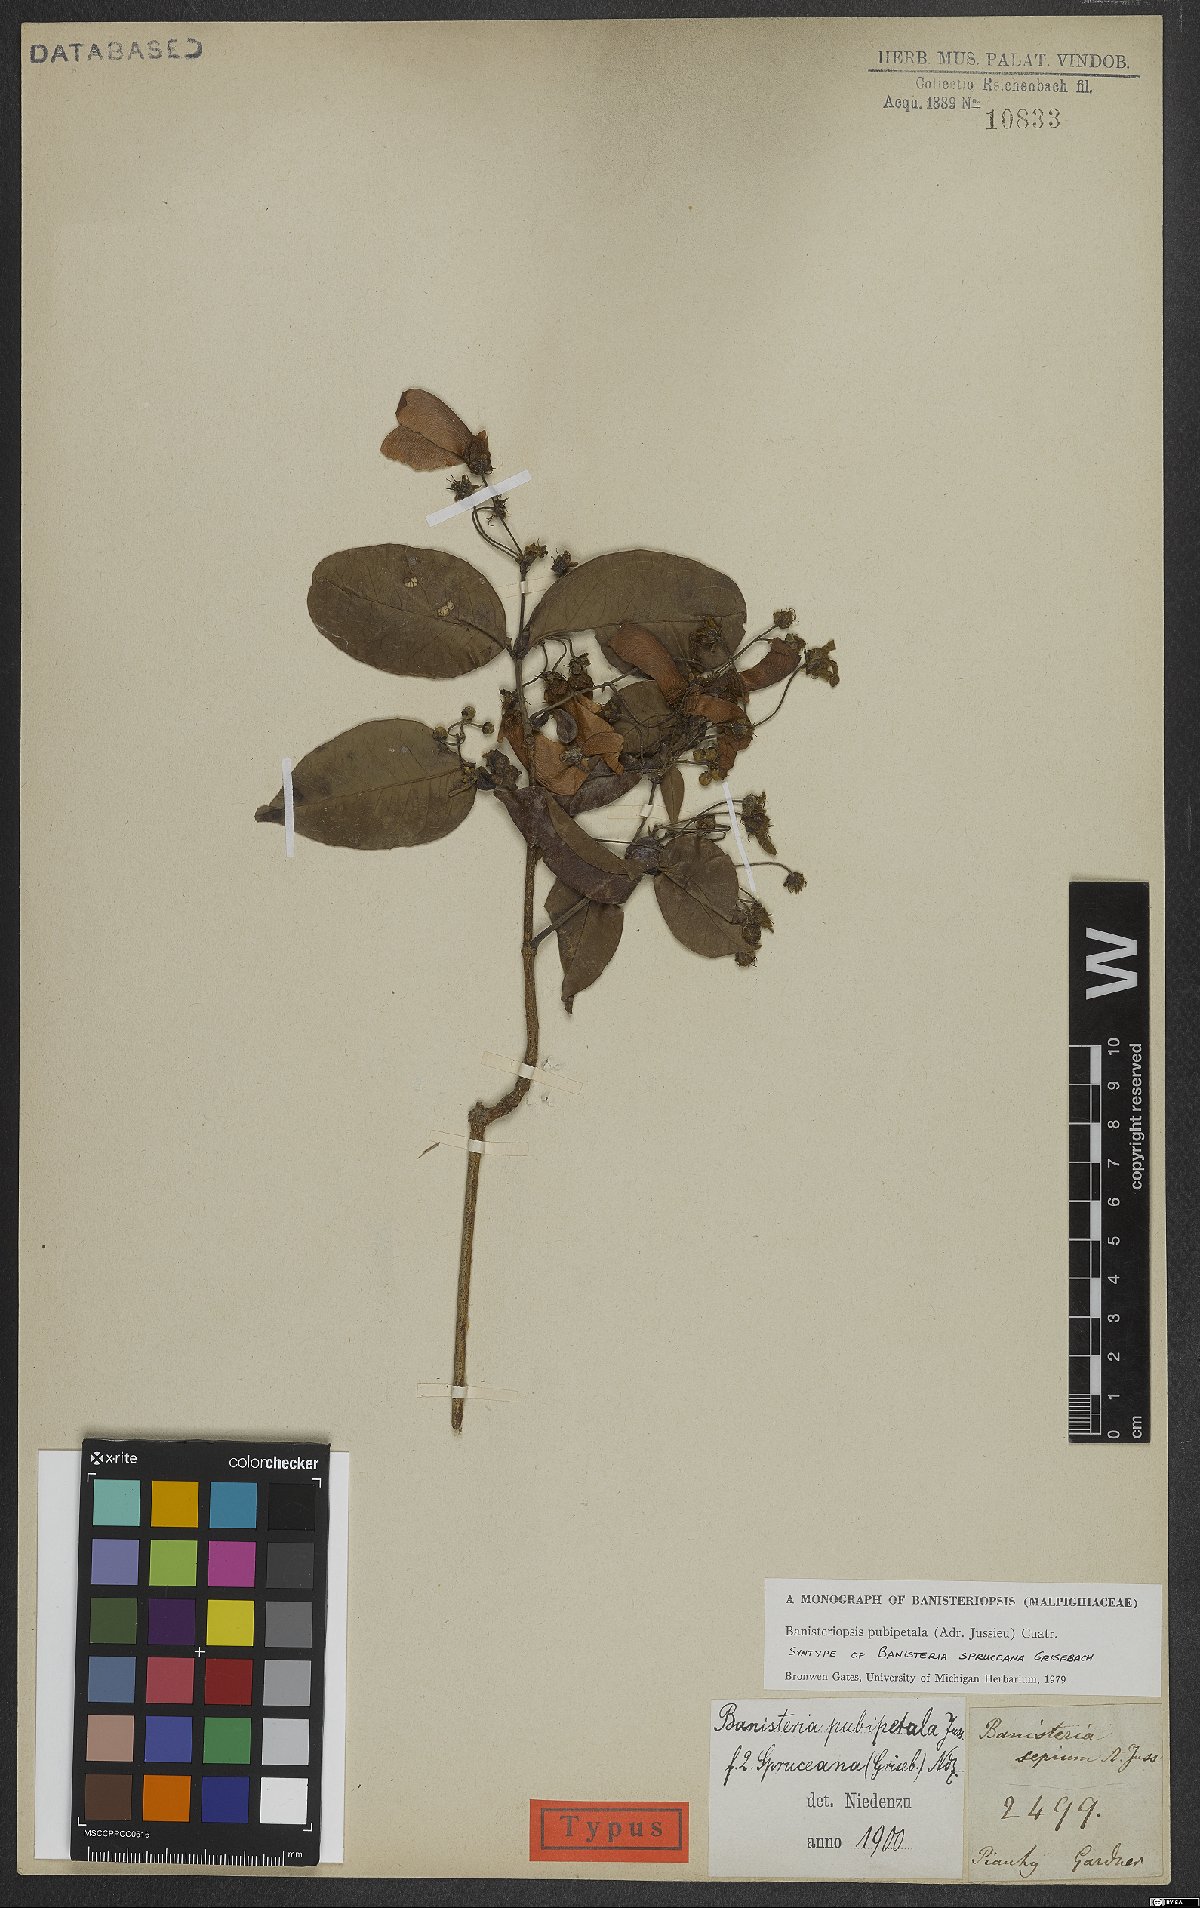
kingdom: Plantae
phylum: Tracheophyta
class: Magnoliopsida
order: Malpighiales
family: Malpighiaceae
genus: Diplopterys
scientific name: Diplopterys pubipetala
